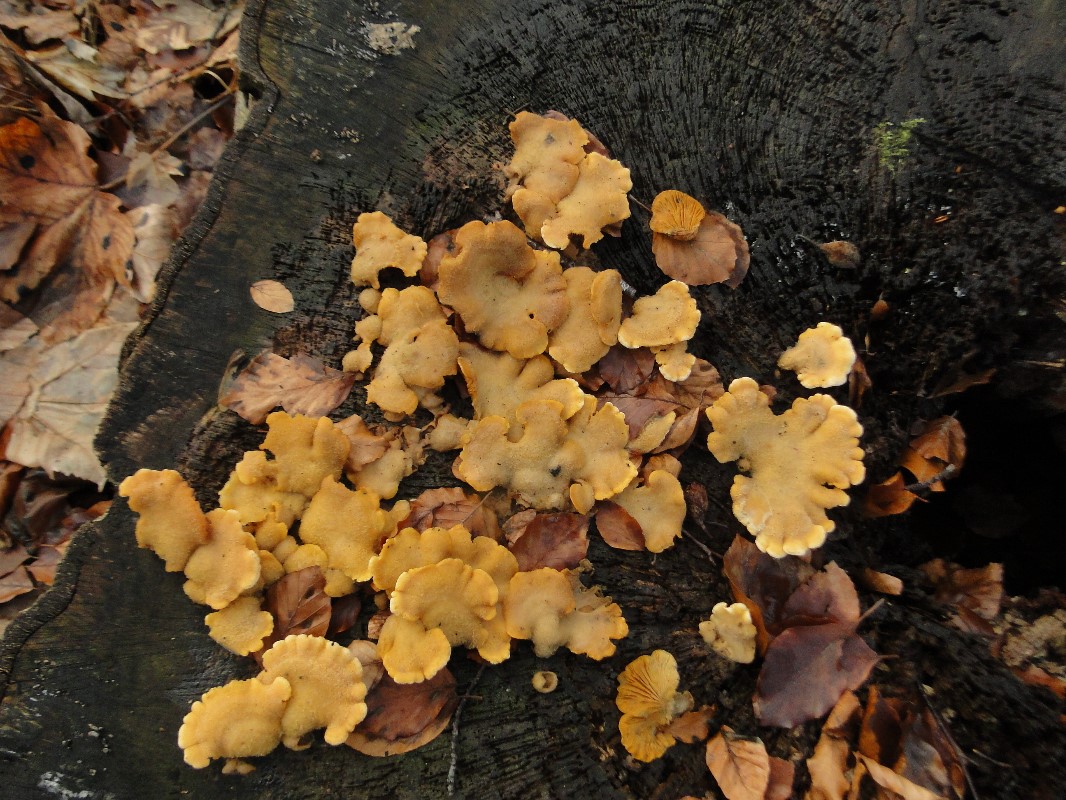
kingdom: Fungi
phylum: Basidiomycota
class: Agaricomycetes
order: Agaricales
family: Phyllotopsidaceae
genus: Phyllotopsis
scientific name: Phyllotopsis nidulans
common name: okkerblad
